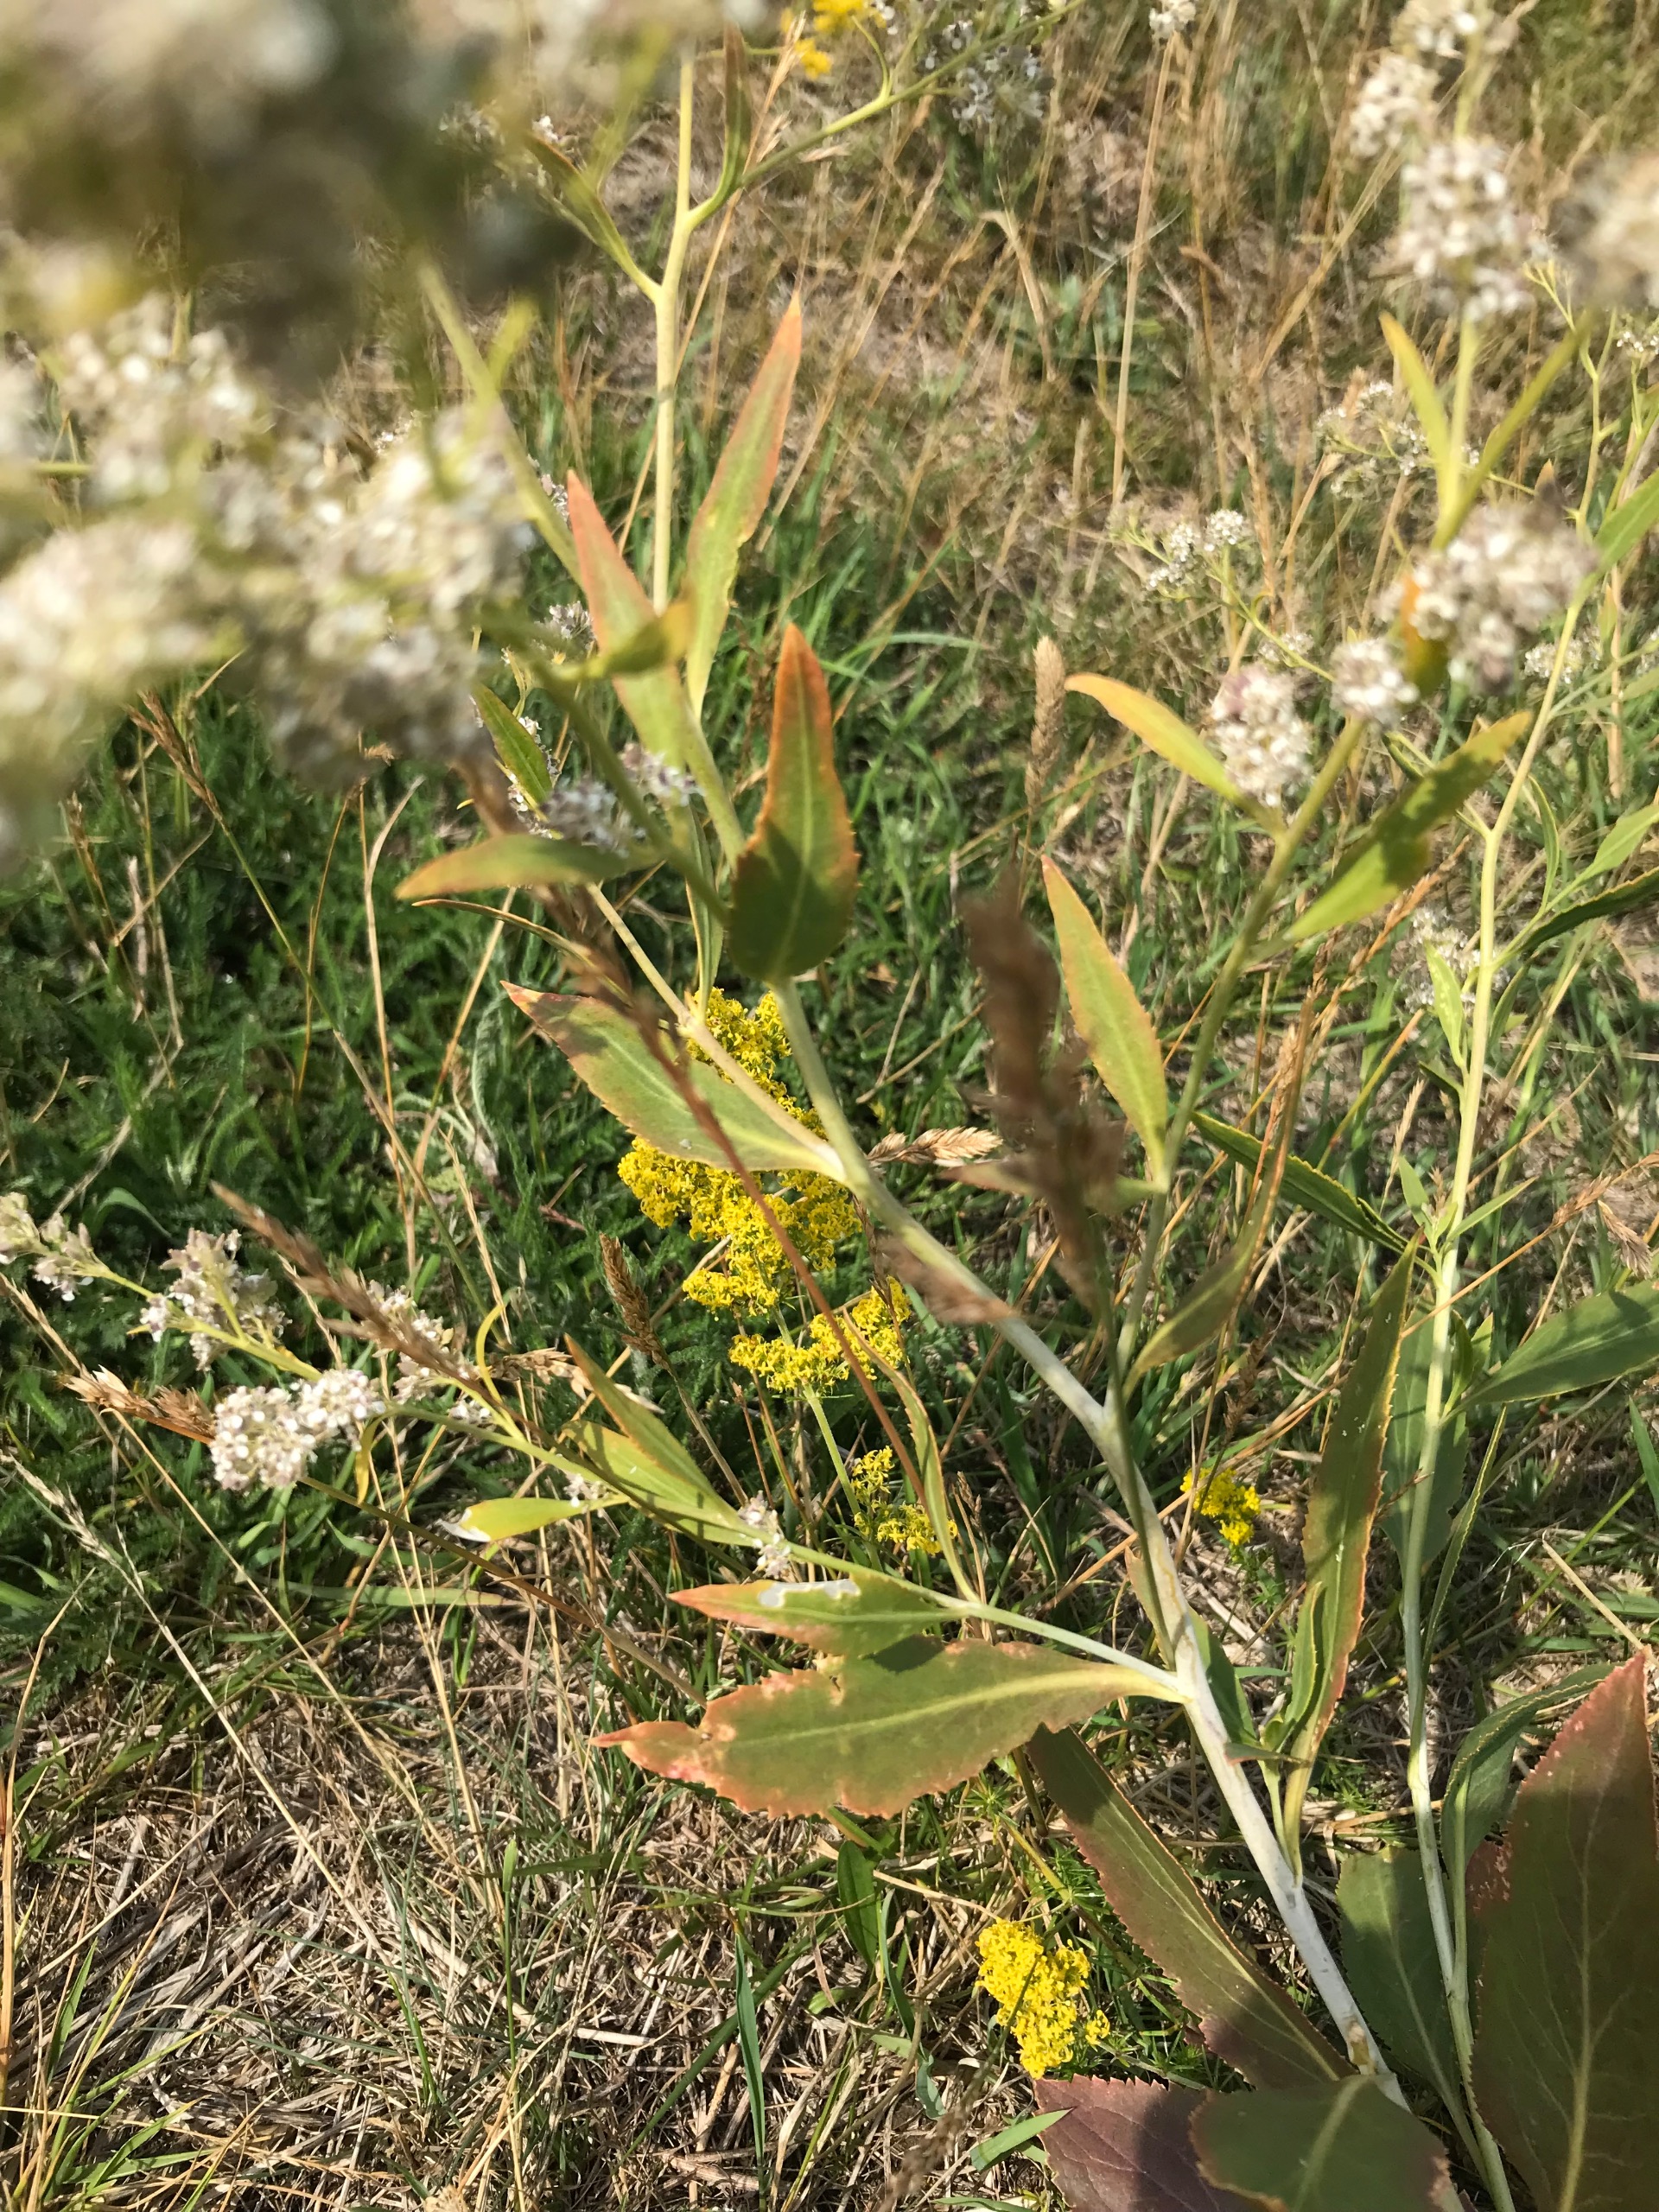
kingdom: Plantae
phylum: Tracheophyta
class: Magnoliopsida
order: Brassicales
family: Brassicaceae
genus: Lepidium
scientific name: Lepidium latifolium
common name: Strand-karse
